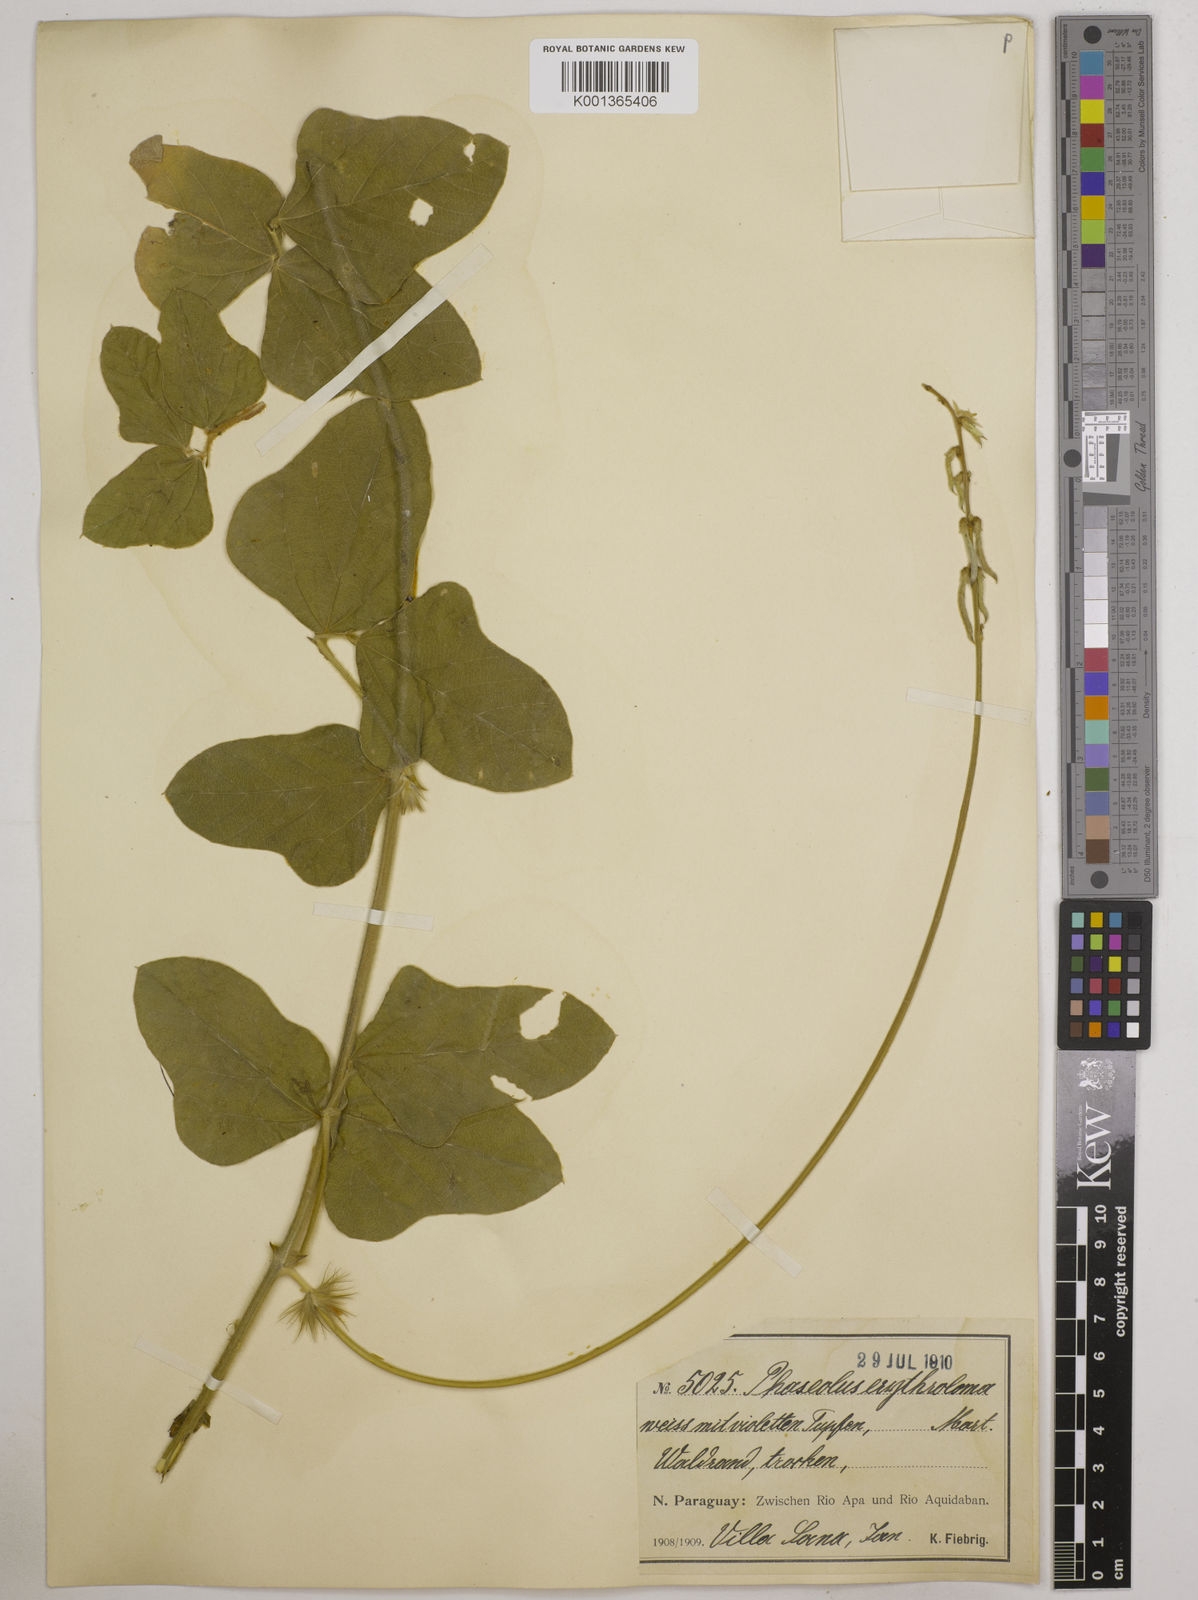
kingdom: Plantae
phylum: Tracheophyta
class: Magnoliopsida
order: Fabales
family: Fabaceae
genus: Macroptilium
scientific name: Macroptilium erythroloma
